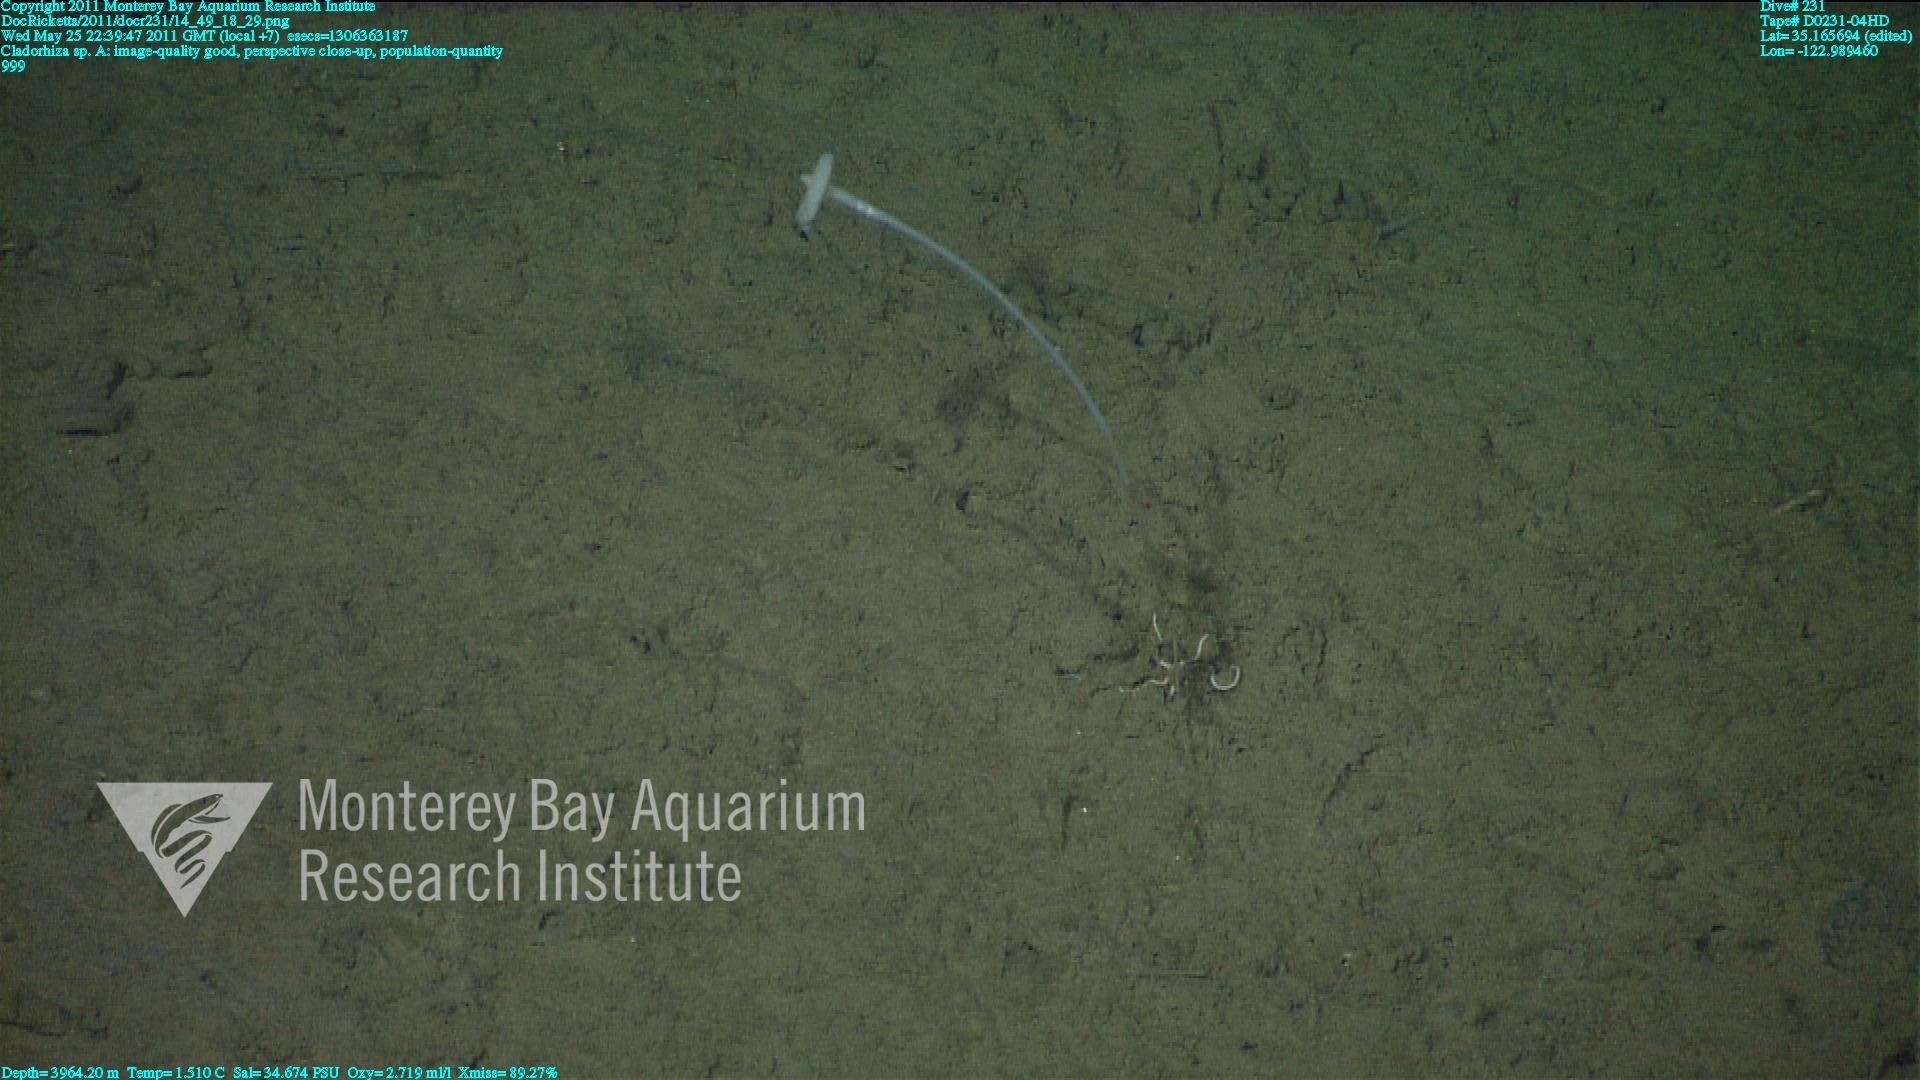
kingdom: Animalia
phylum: Porifera
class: Demospongiae
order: Poecilosclerida
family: Cladorhizidae
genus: Cladorhiza
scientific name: Cladorhiza
